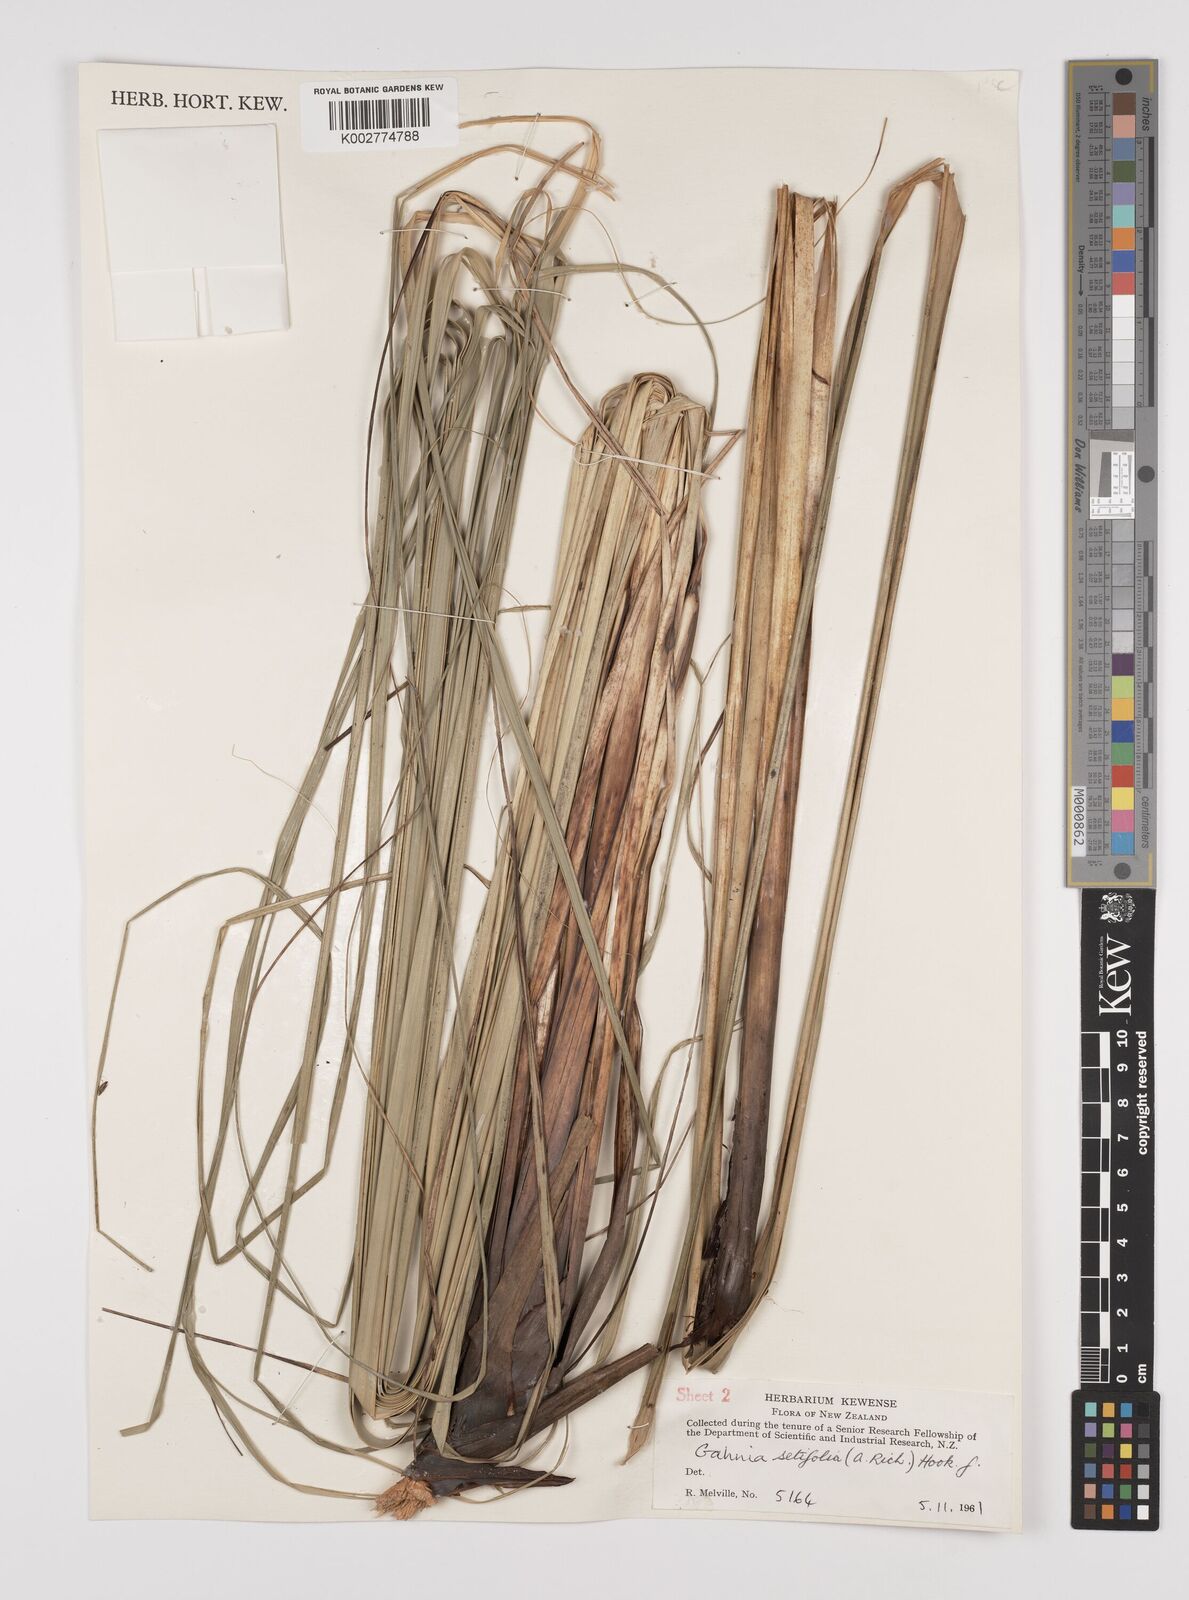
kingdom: Plantae
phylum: Tracheophyta
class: Liliopsida
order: Poales
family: Cyperaceae
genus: Gahnia
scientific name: Gahnia setifolia
